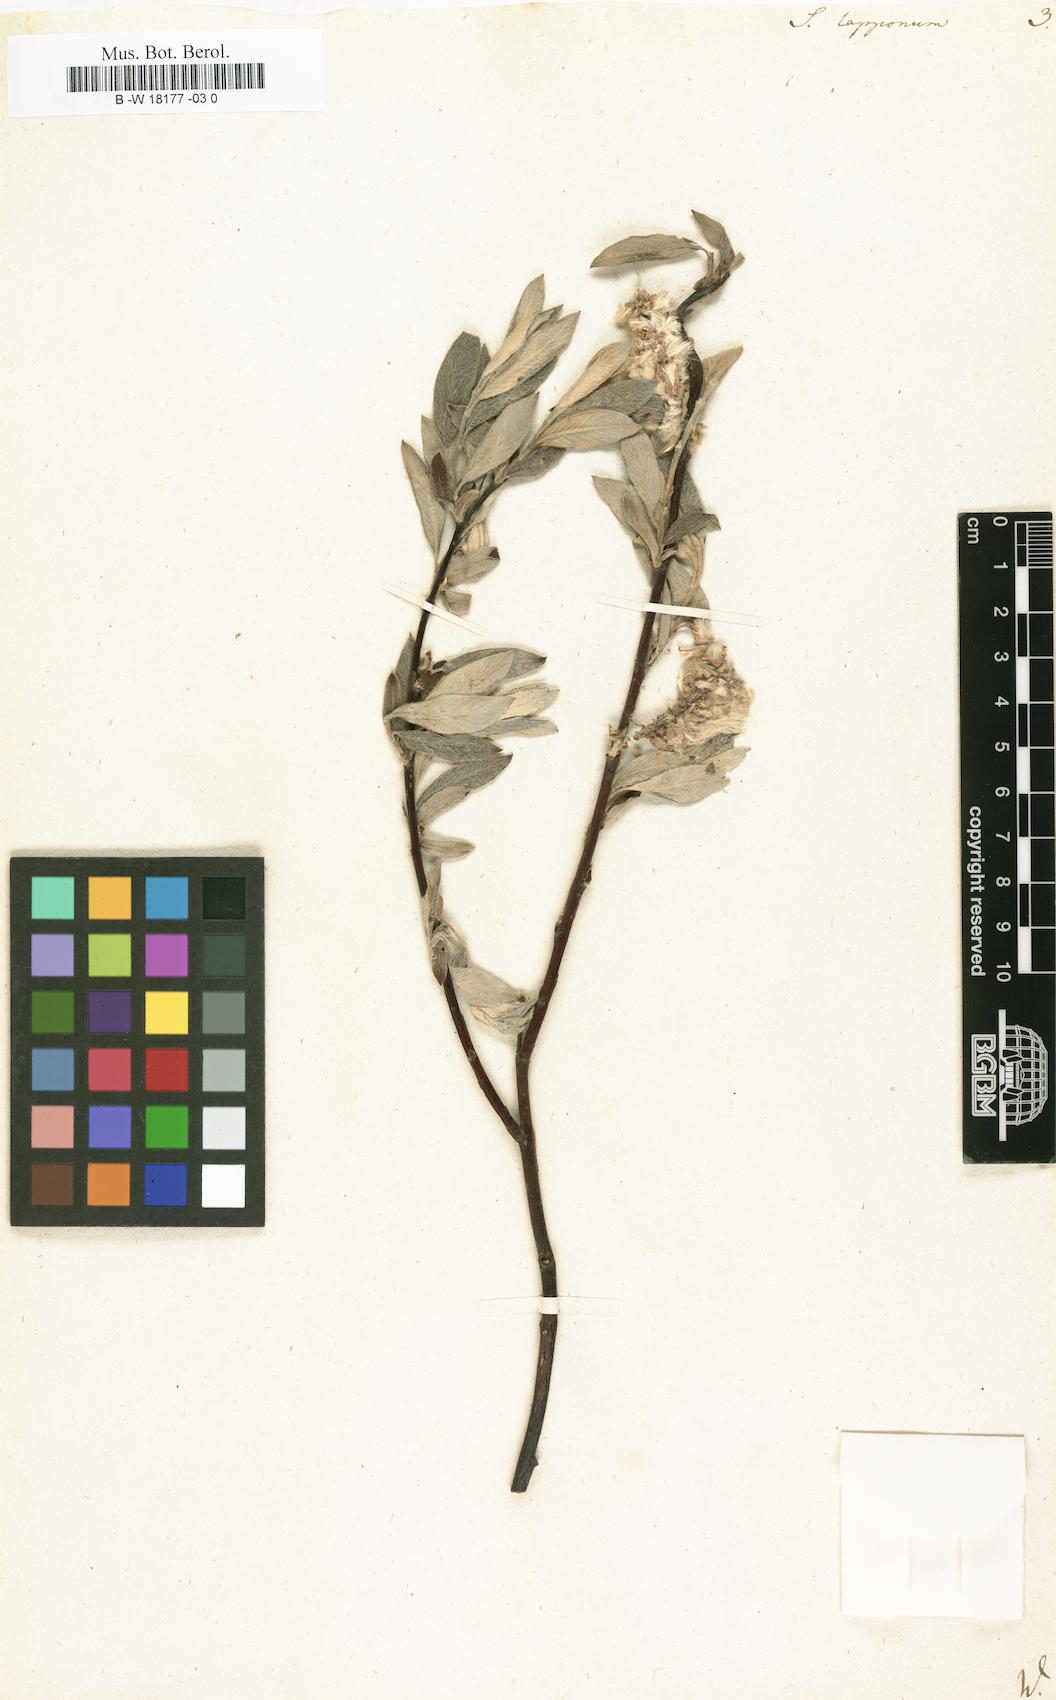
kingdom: Plantae
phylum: Tracheophyta
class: Magnoliopsida
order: Malpighiales
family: Salicaceae
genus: Salix
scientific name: Salix lapponum
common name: Downy willow
